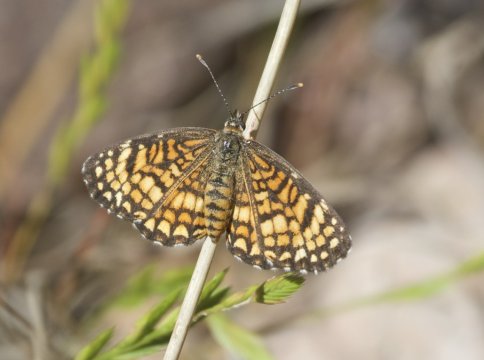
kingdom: Animalia
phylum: Arthropoda
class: Insecta
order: Lepidoptera
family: Nymphalidae
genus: Texola
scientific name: Texola elada
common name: Elada Checkerspot
